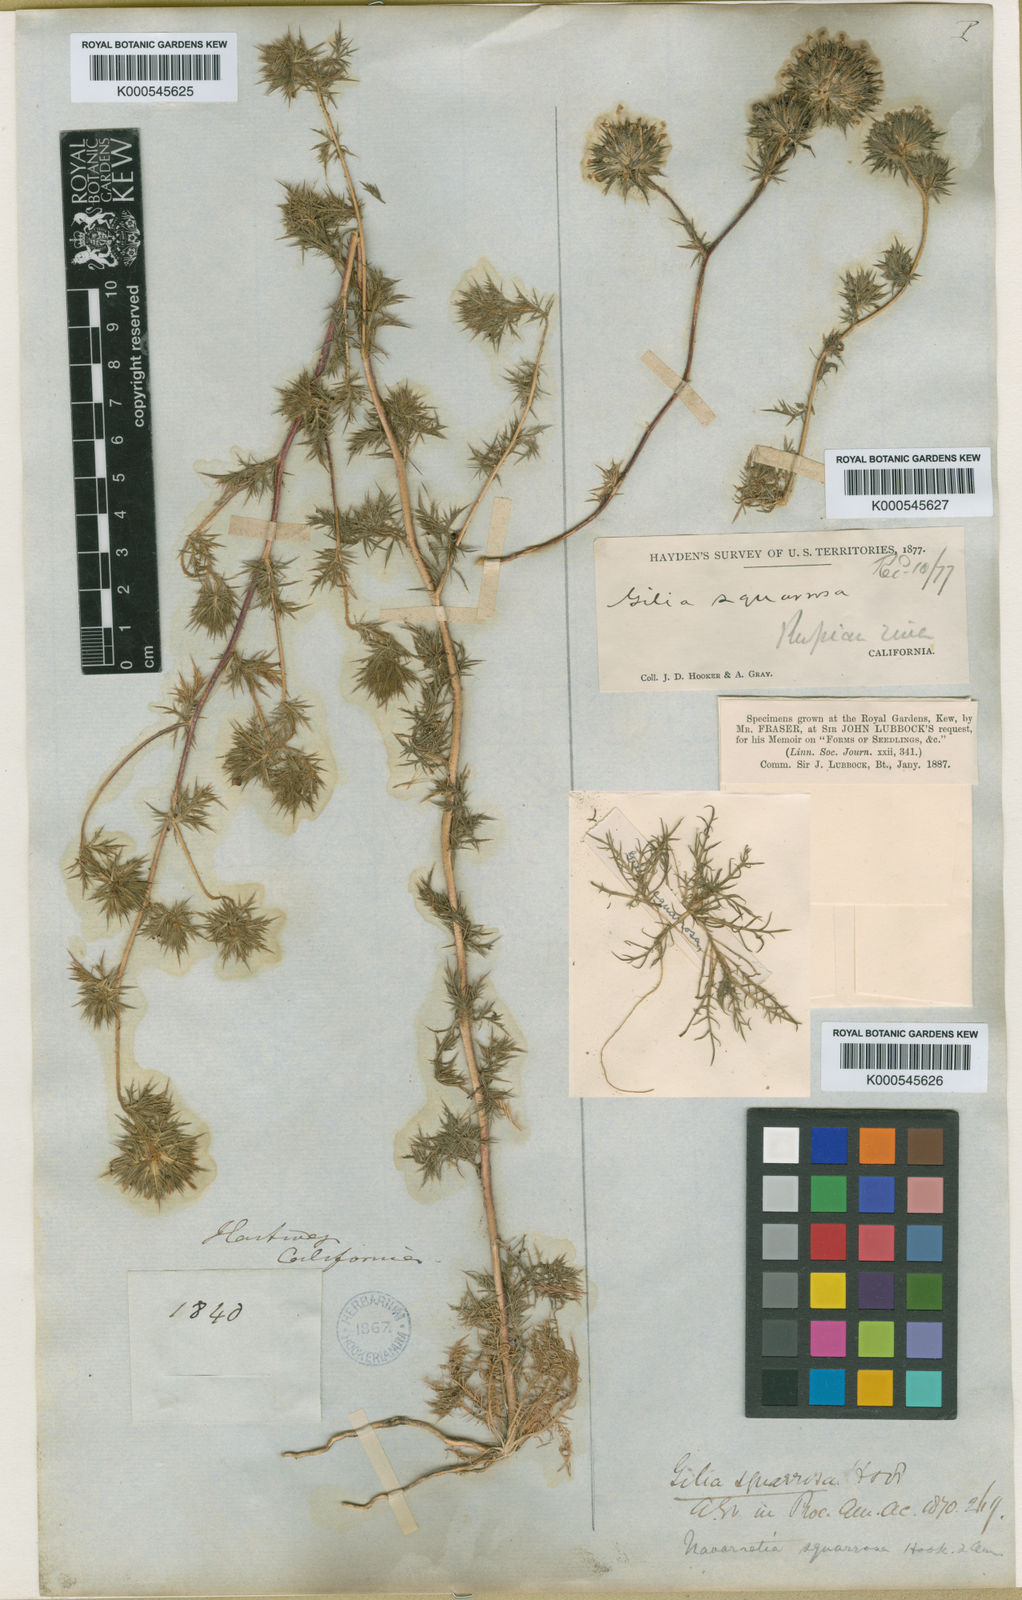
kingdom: Plantae
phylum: Tracheophyta
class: Magnoliopsida
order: Ericales
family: Polemoniaceae
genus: Navarretia
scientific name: Navarretia squarrosa
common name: Skunkweed
